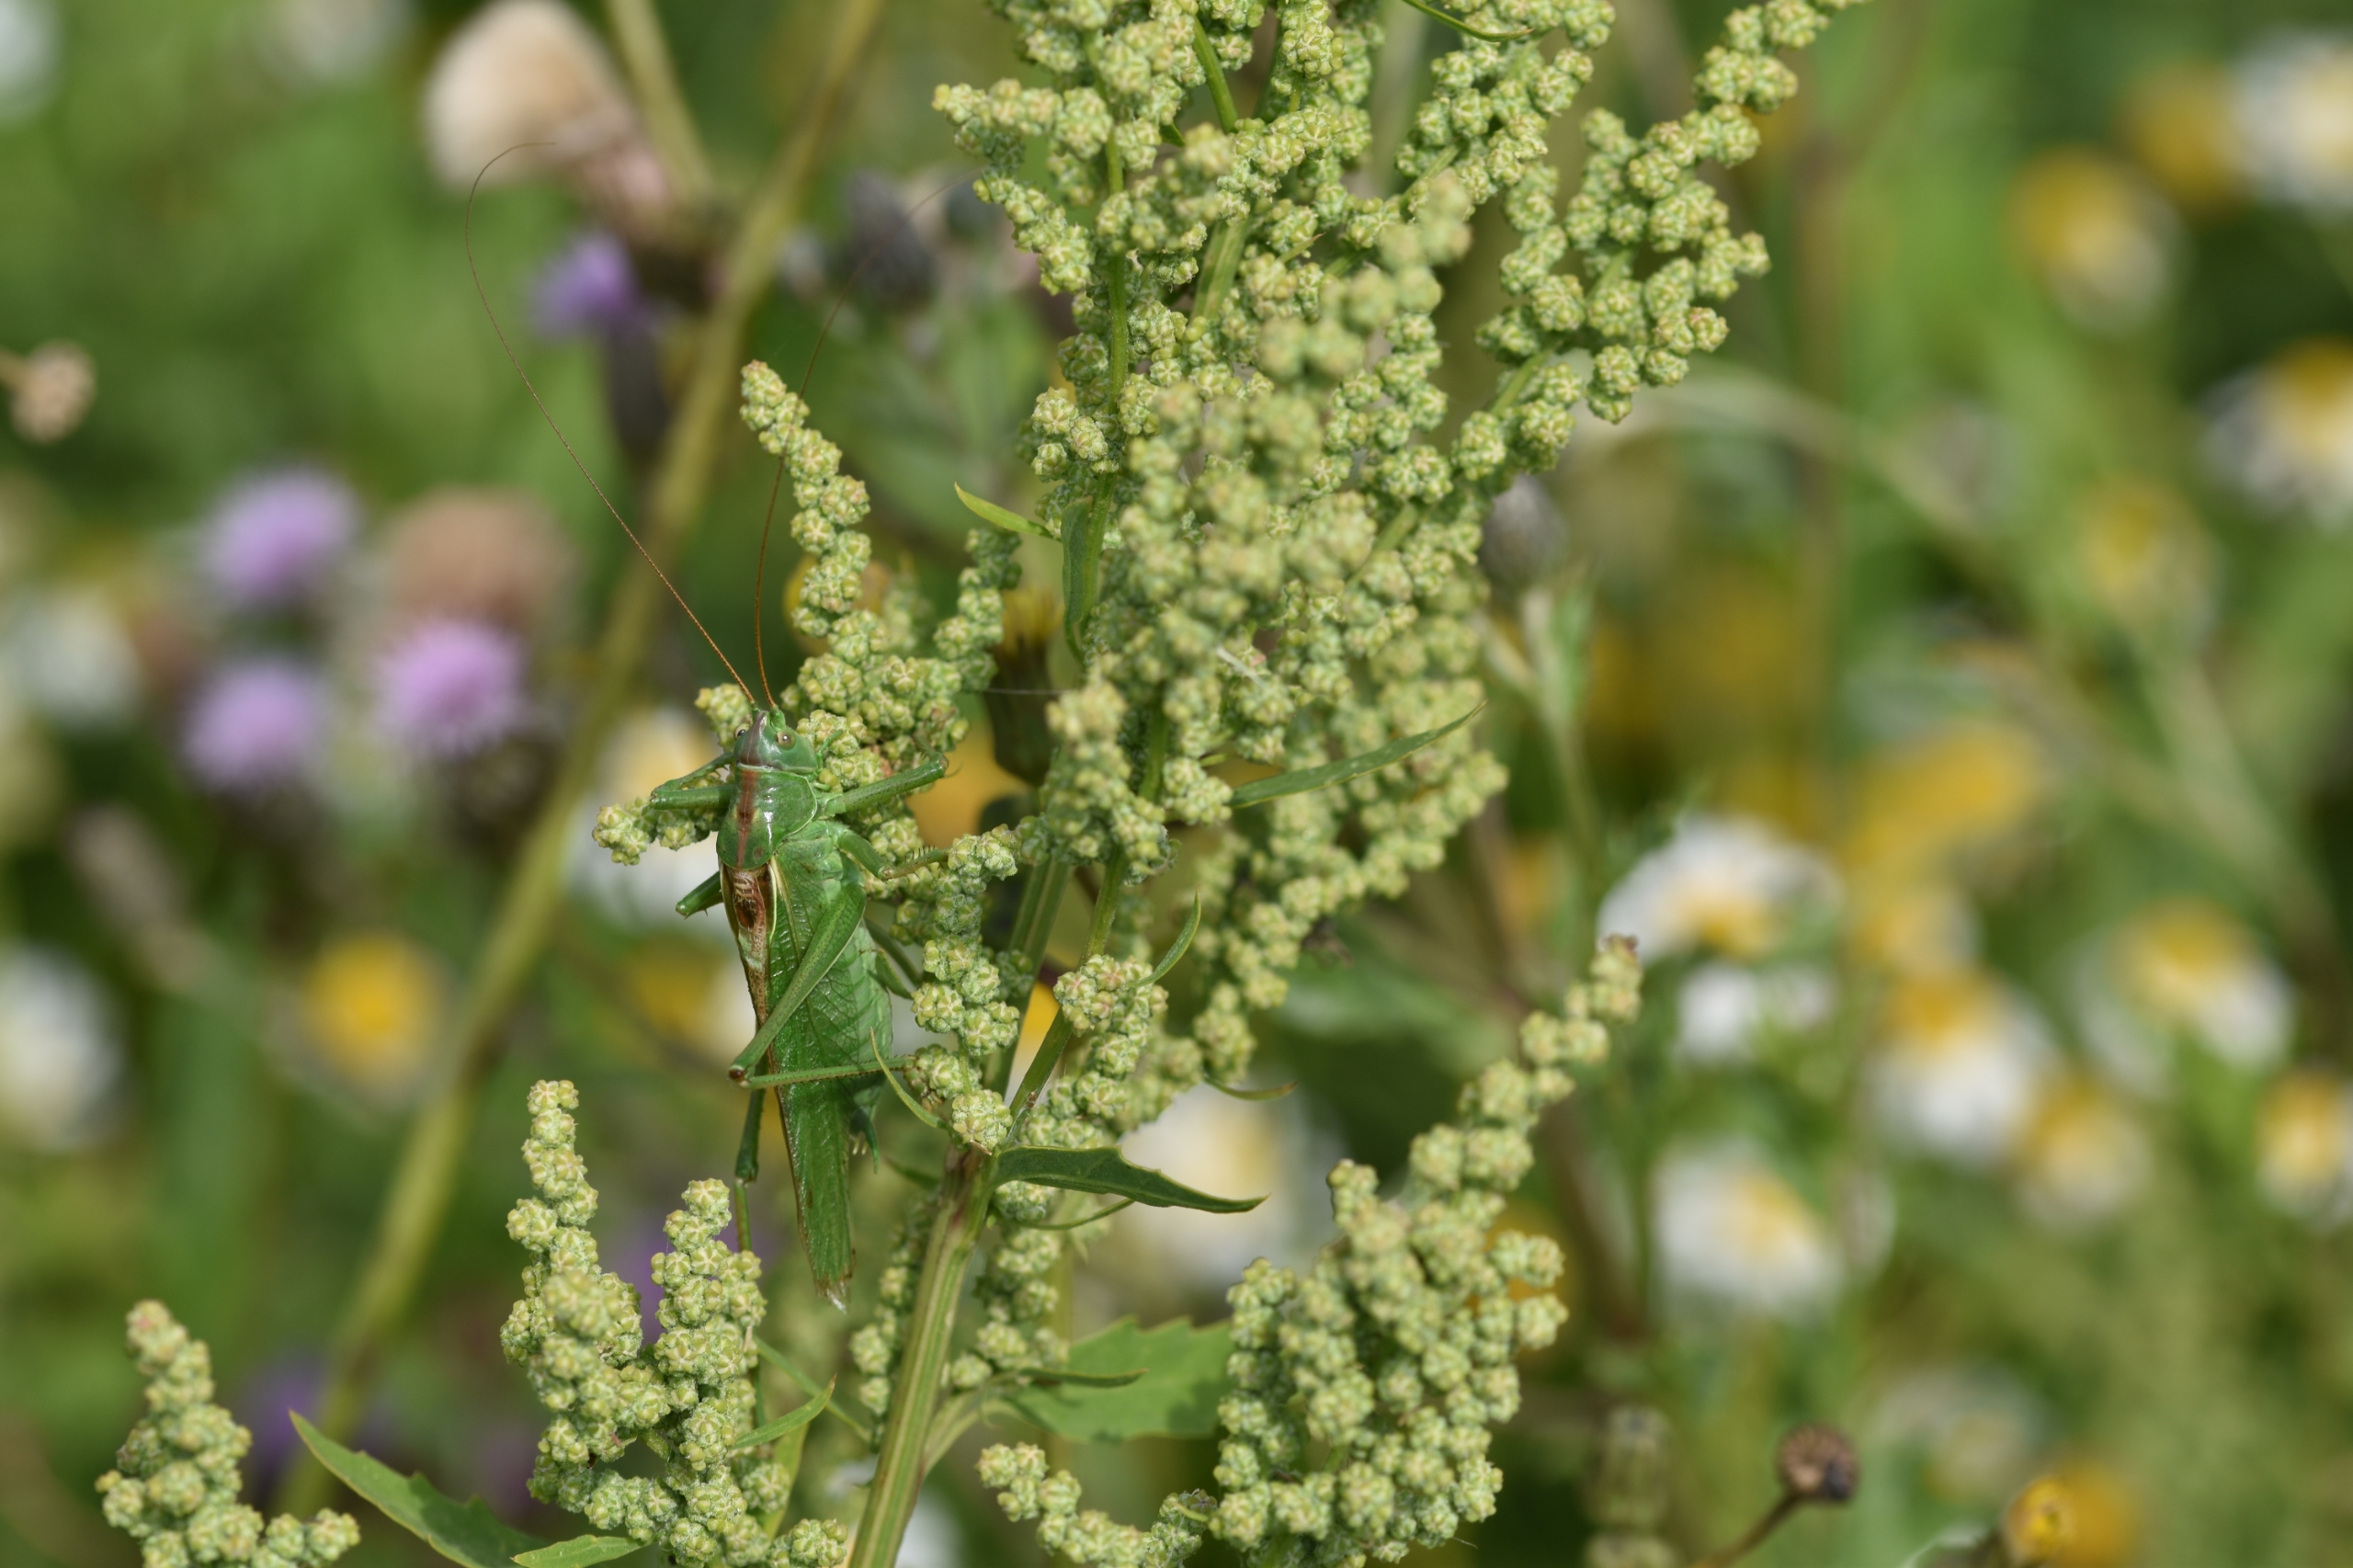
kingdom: Animalia
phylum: Arthropoda
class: Insecta
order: Orthoptera
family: Tettigoniidae
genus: Tettigonia
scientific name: Tettigonia viridissima
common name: Stor grøn løvgræshoppe
